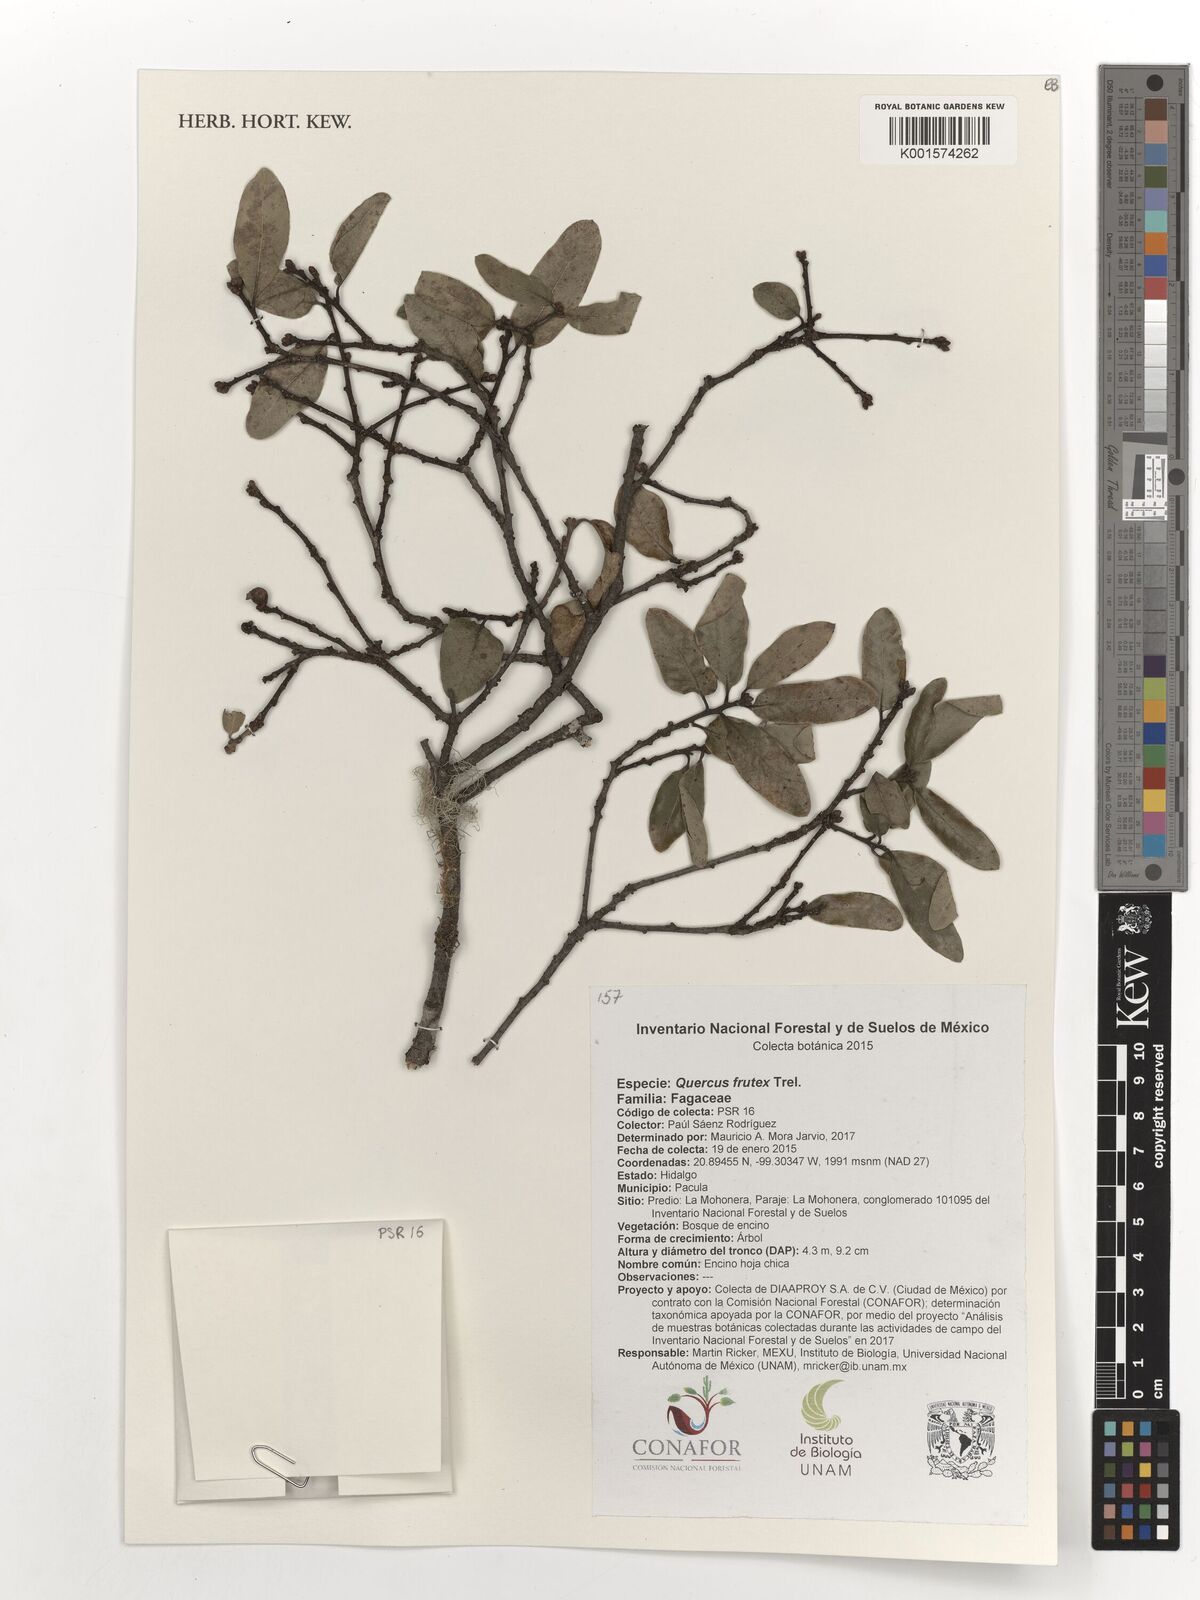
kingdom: Plantae
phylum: Tracheophyta
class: Magnoliopsida
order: Fagales
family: Fagaceae
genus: Quercus
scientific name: Quercus frutex
